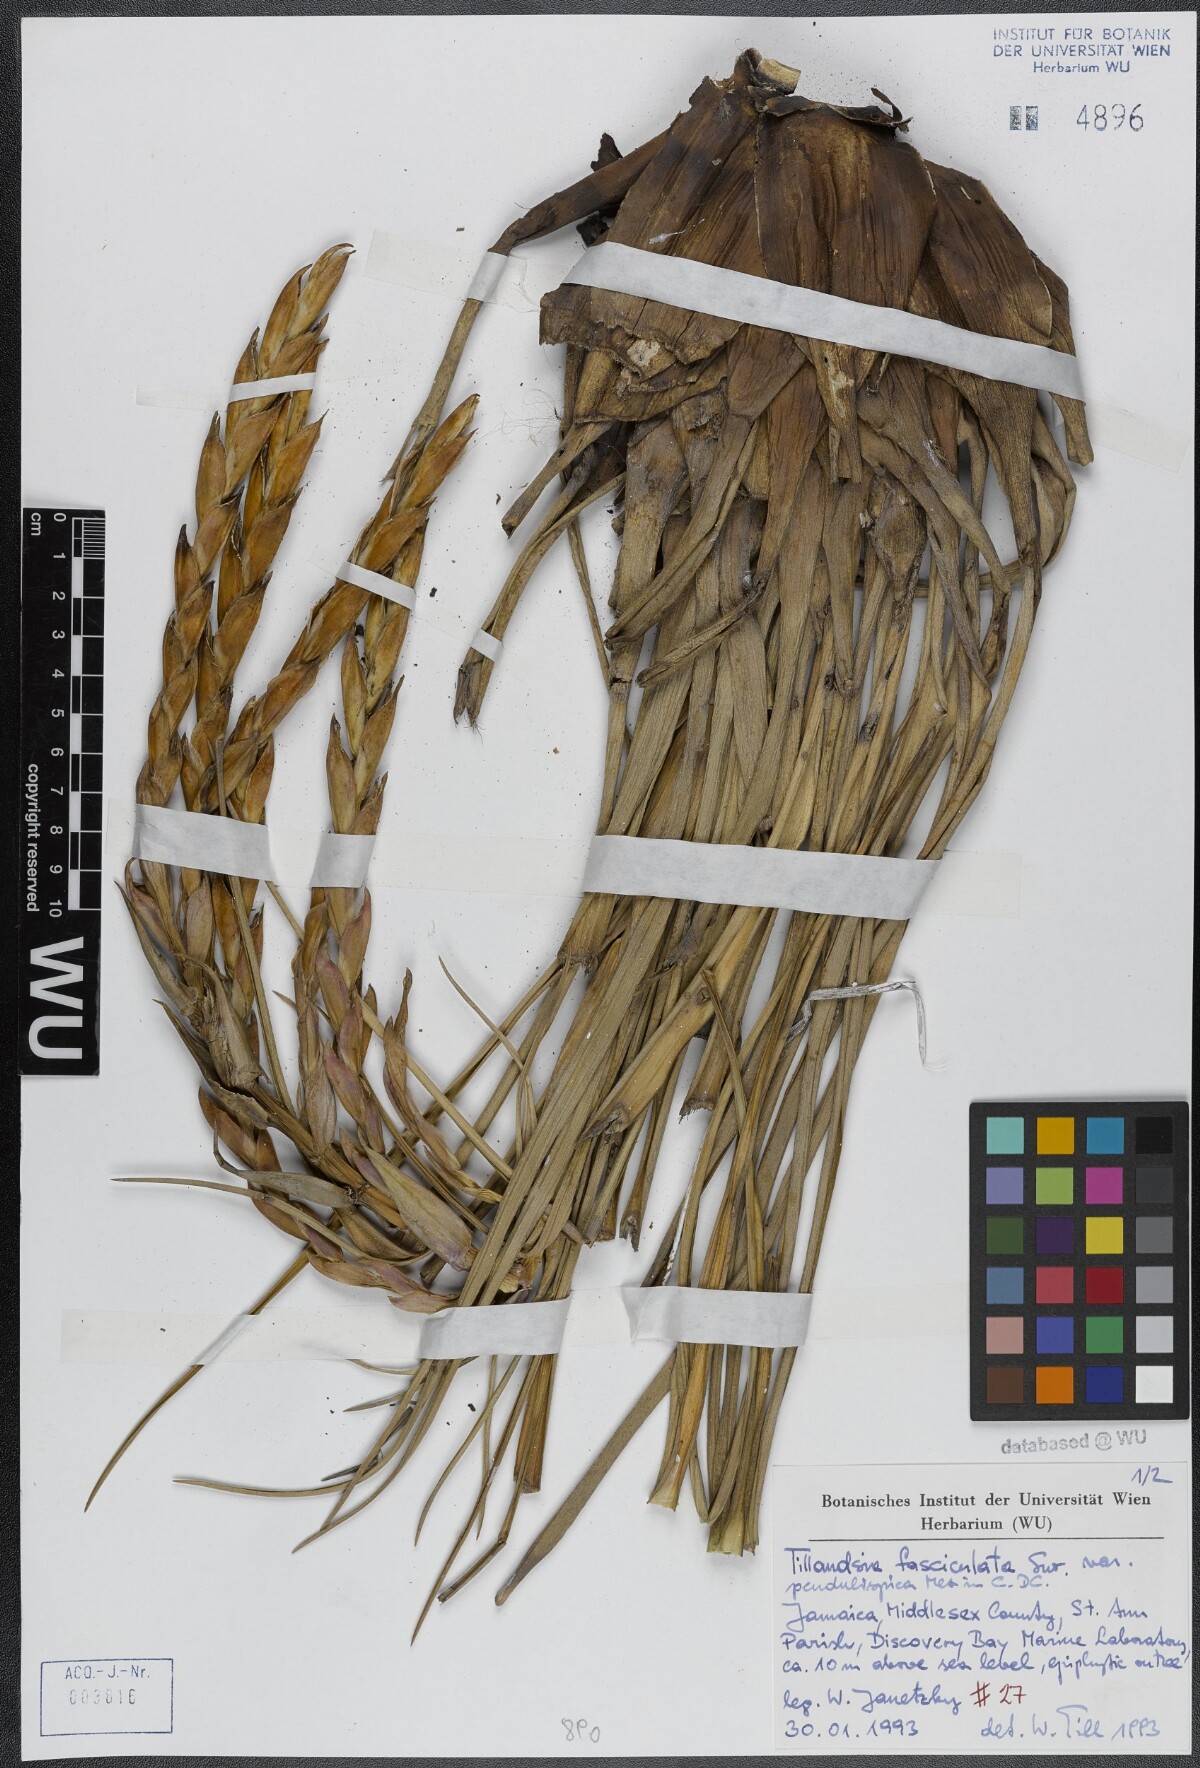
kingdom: Plantae
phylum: Tracheophyta
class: Liliopsida
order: Poales
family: Bromeliaceae
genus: Tillandsia
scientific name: Tillandsia fasciculata
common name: Giant airplant
